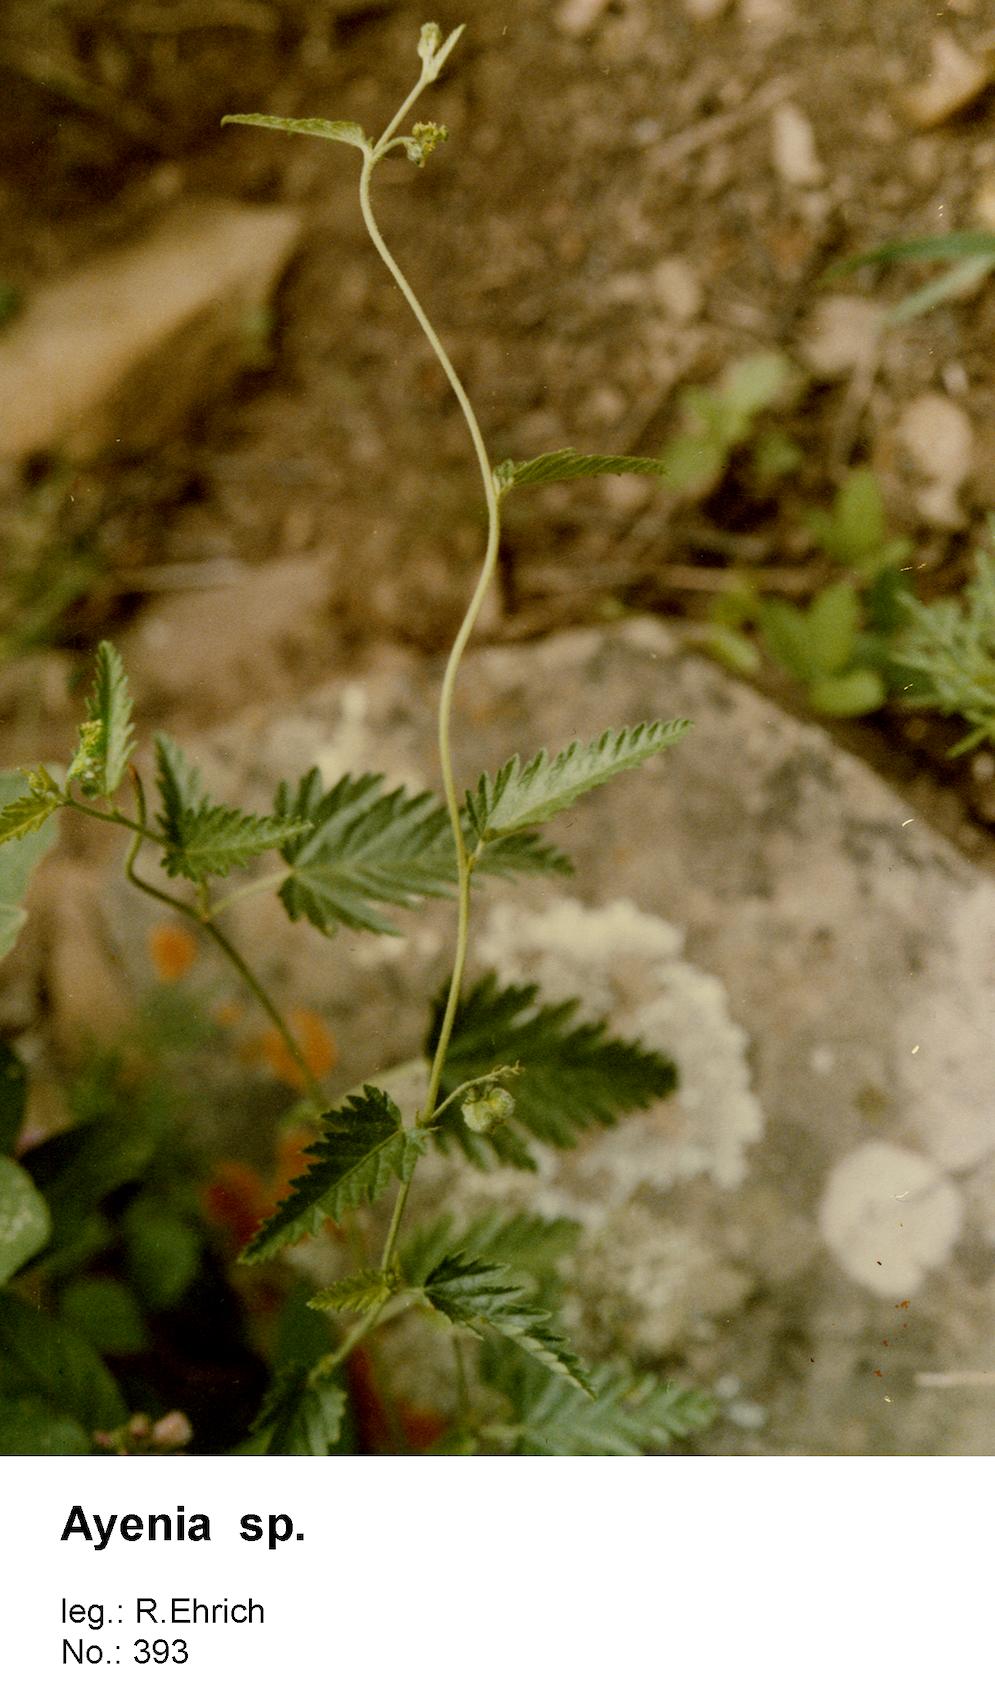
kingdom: Plantae
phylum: Tracheophyta
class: Magnoliopsida
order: Malvales
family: Malvaceae
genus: Ayenia
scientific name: Ayenia
